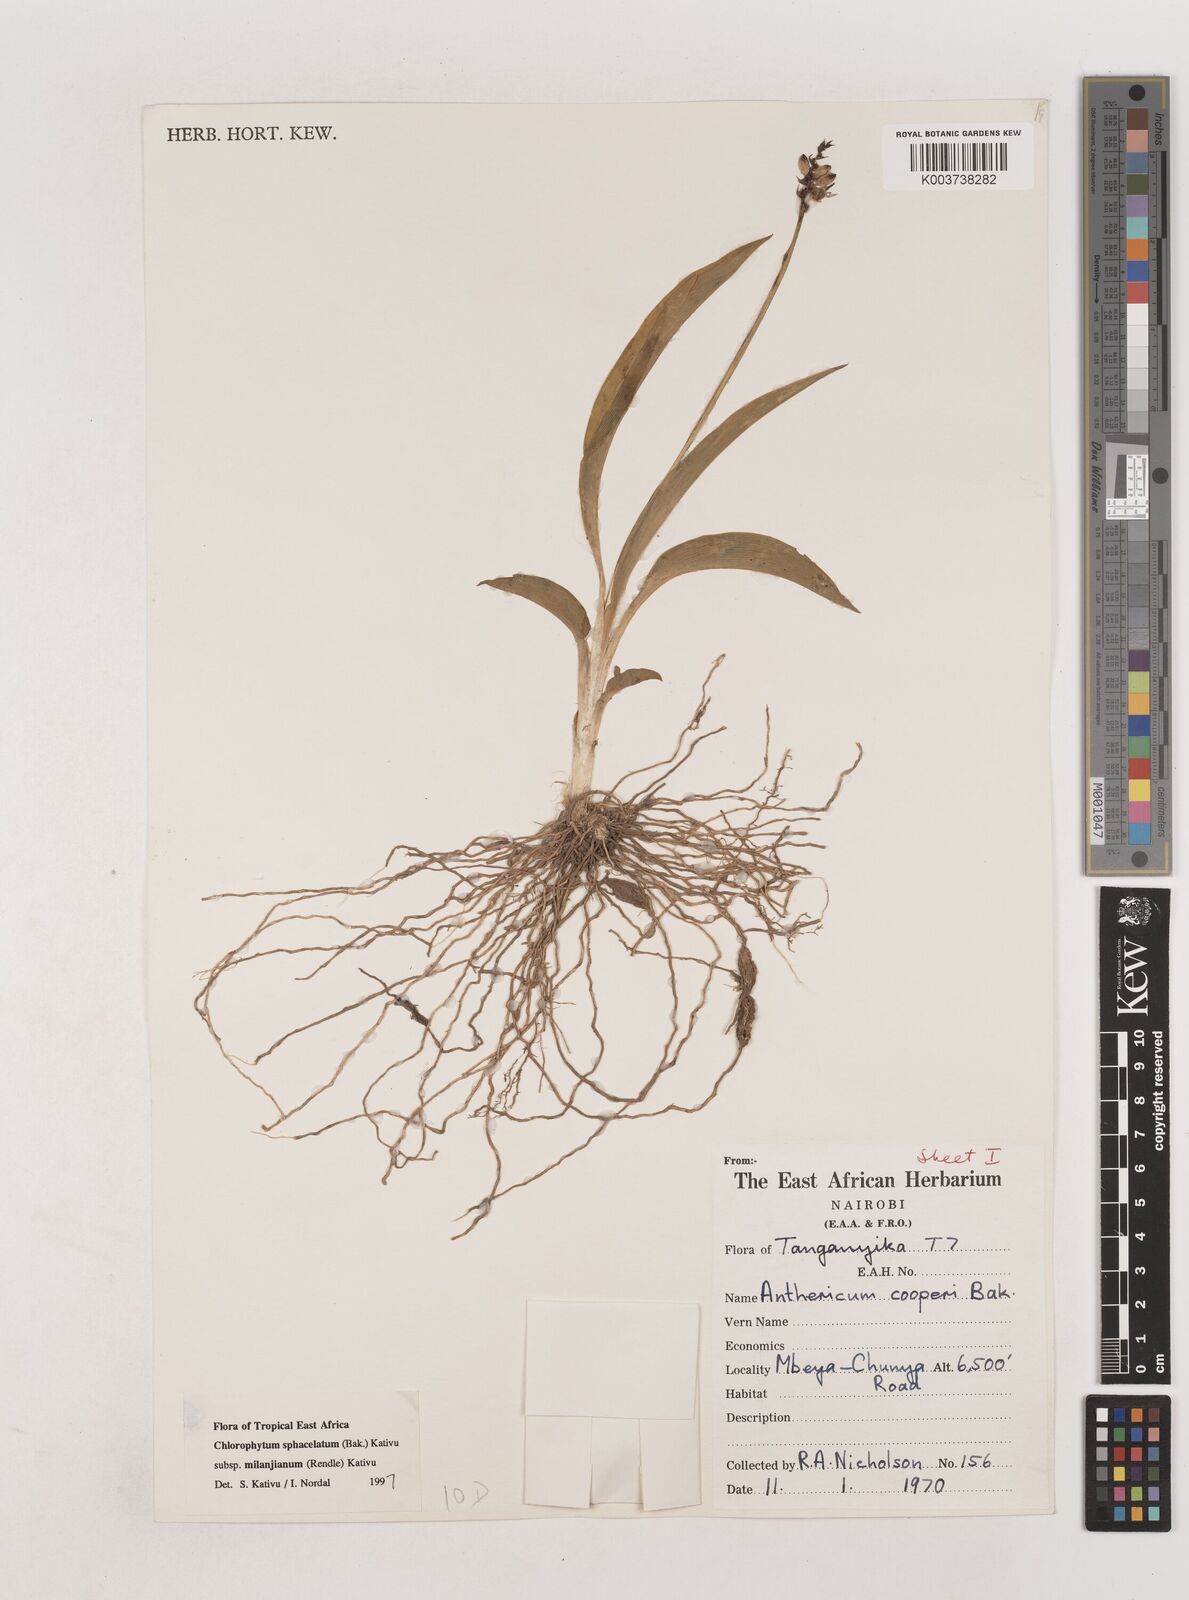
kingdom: Plantae
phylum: Tracheophyta
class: Liliopsida
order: Asparagales
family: Asparagaceae
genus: Chlorophytum
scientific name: Chlorophytum sphacelatum
